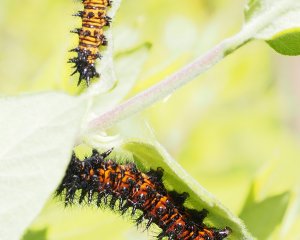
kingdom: Animalia
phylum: Arthropoda
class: Insecta
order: Lepidoptera
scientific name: Lepidoptera
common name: Butterflies
